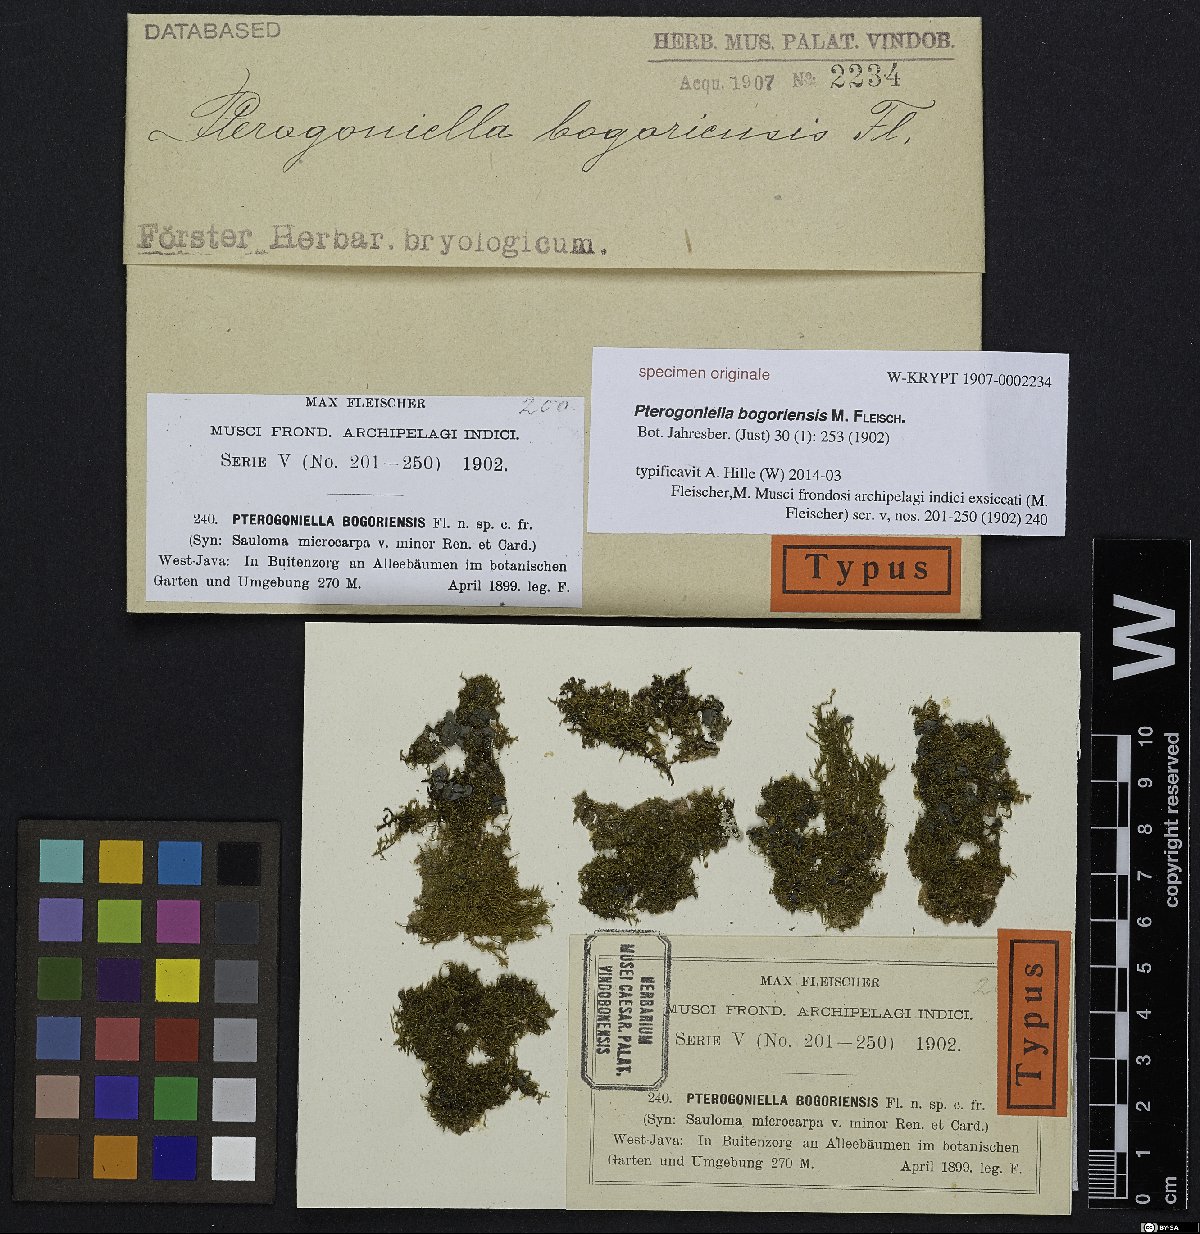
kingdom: Plantae
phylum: Bryophyta
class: Bryopsida
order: Hypnales
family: Sematophyllaceae
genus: Meiothecium
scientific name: Meiothecium
